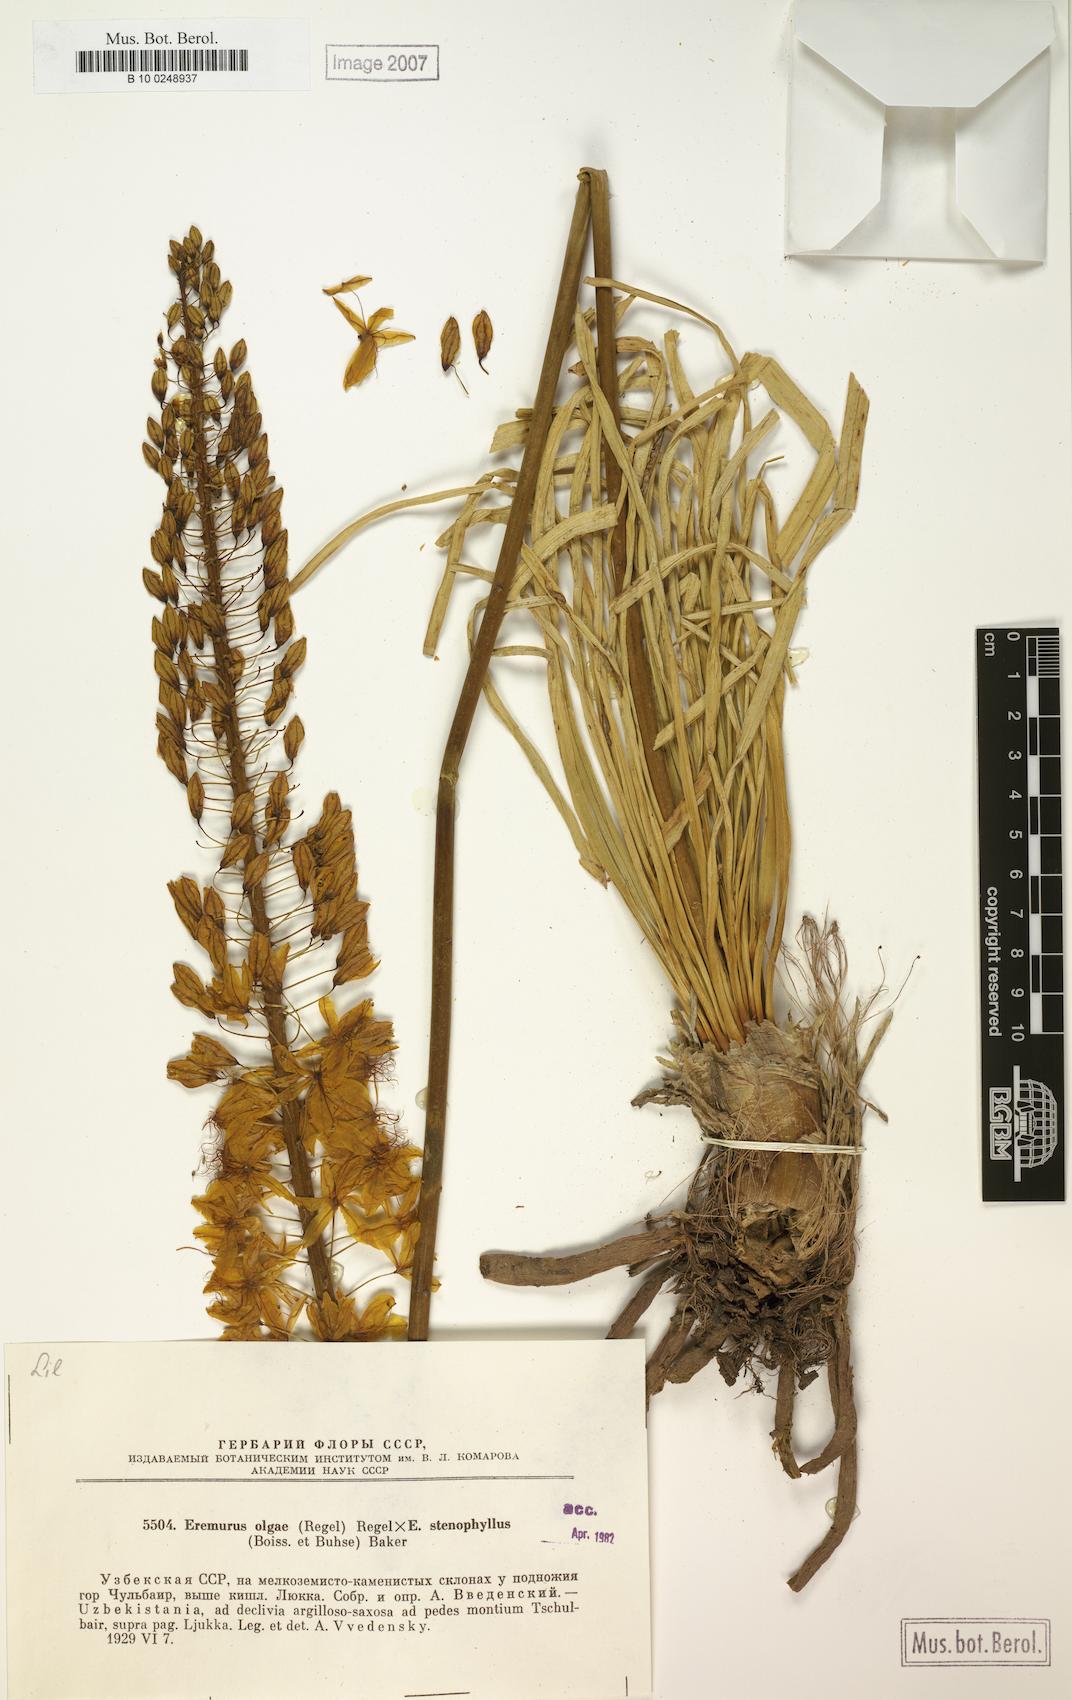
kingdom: Plantae
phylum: Tracheophyta
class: Liliopsida
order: Asparagales
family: Asphodelaceae
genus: Eremurus
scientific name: Eremurus olgae
